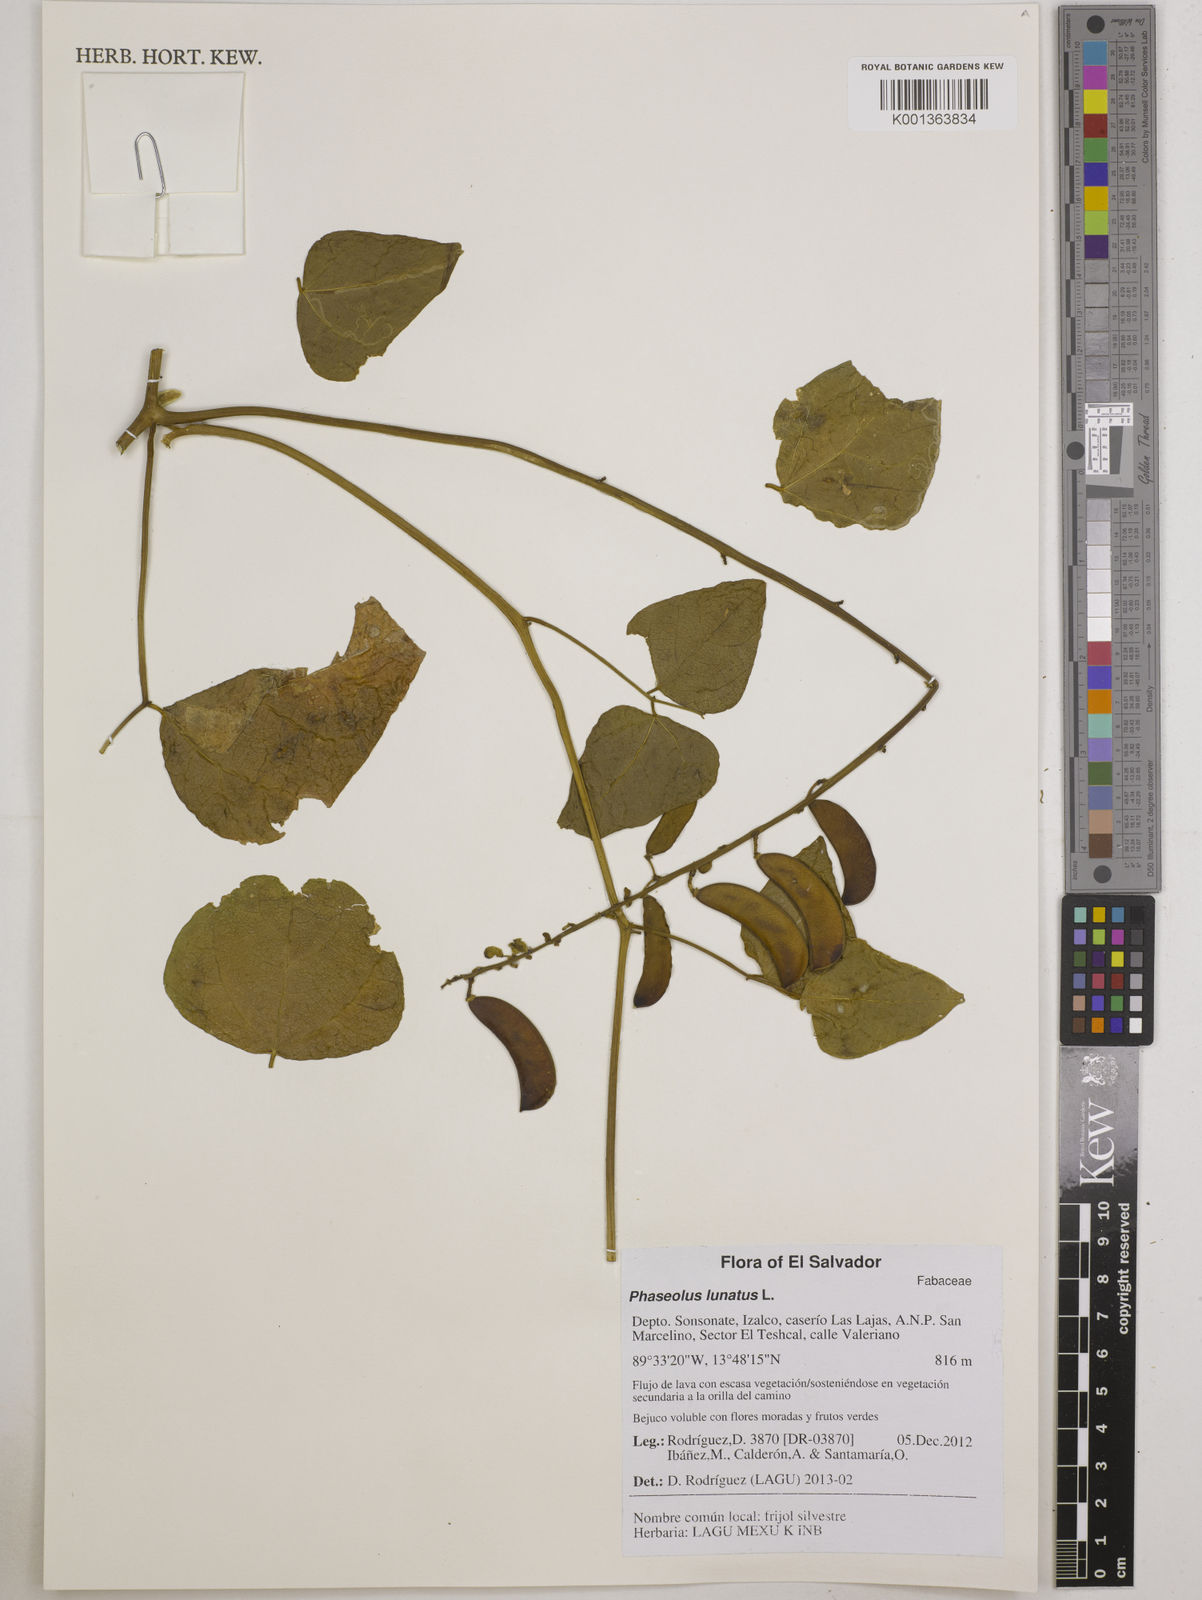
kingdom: Plantae
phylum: Tracheophyta
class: Magnoliopsida
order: Fabales
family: Fabaceae
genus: Phaseolus
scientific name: Phaseolus lunatus
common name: Sieva bean
